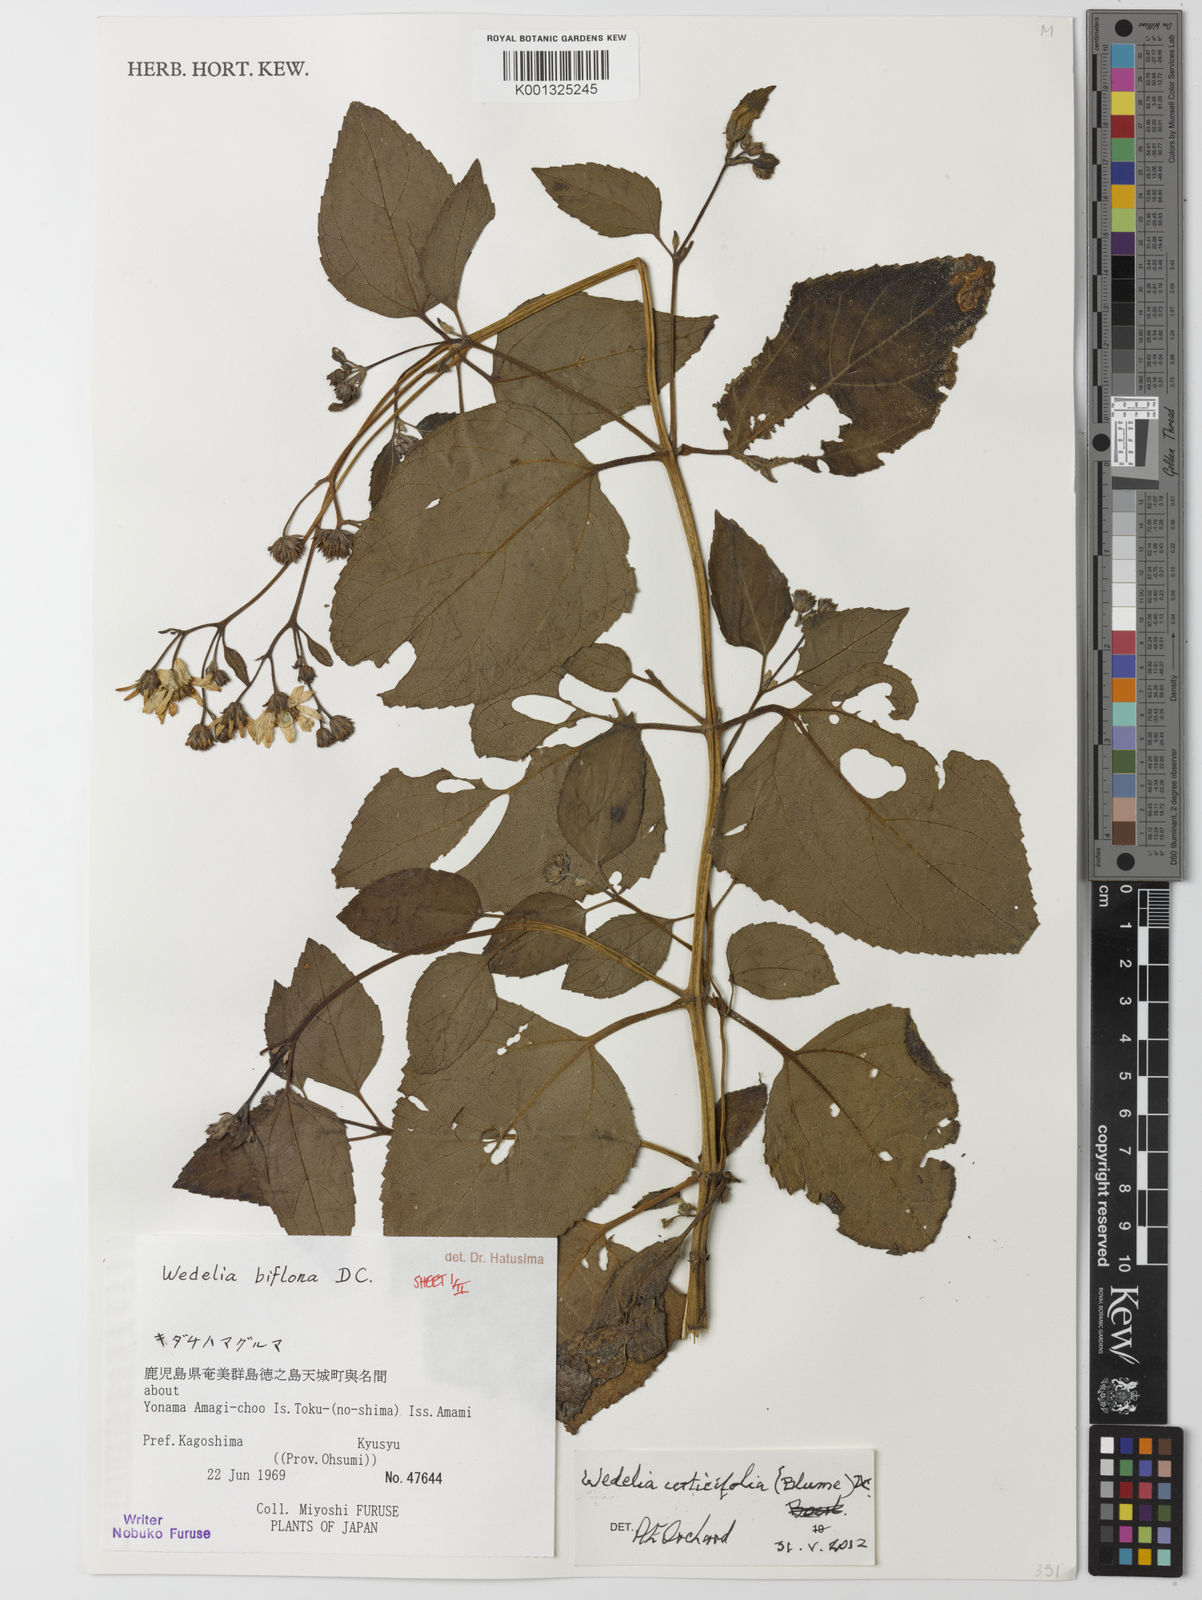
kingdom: Plantae
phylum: Tracheophyta
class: Magnoliopsida
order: Asterales
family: Asteraceae
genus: Wollastonia
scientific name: Wollastonia biflora
